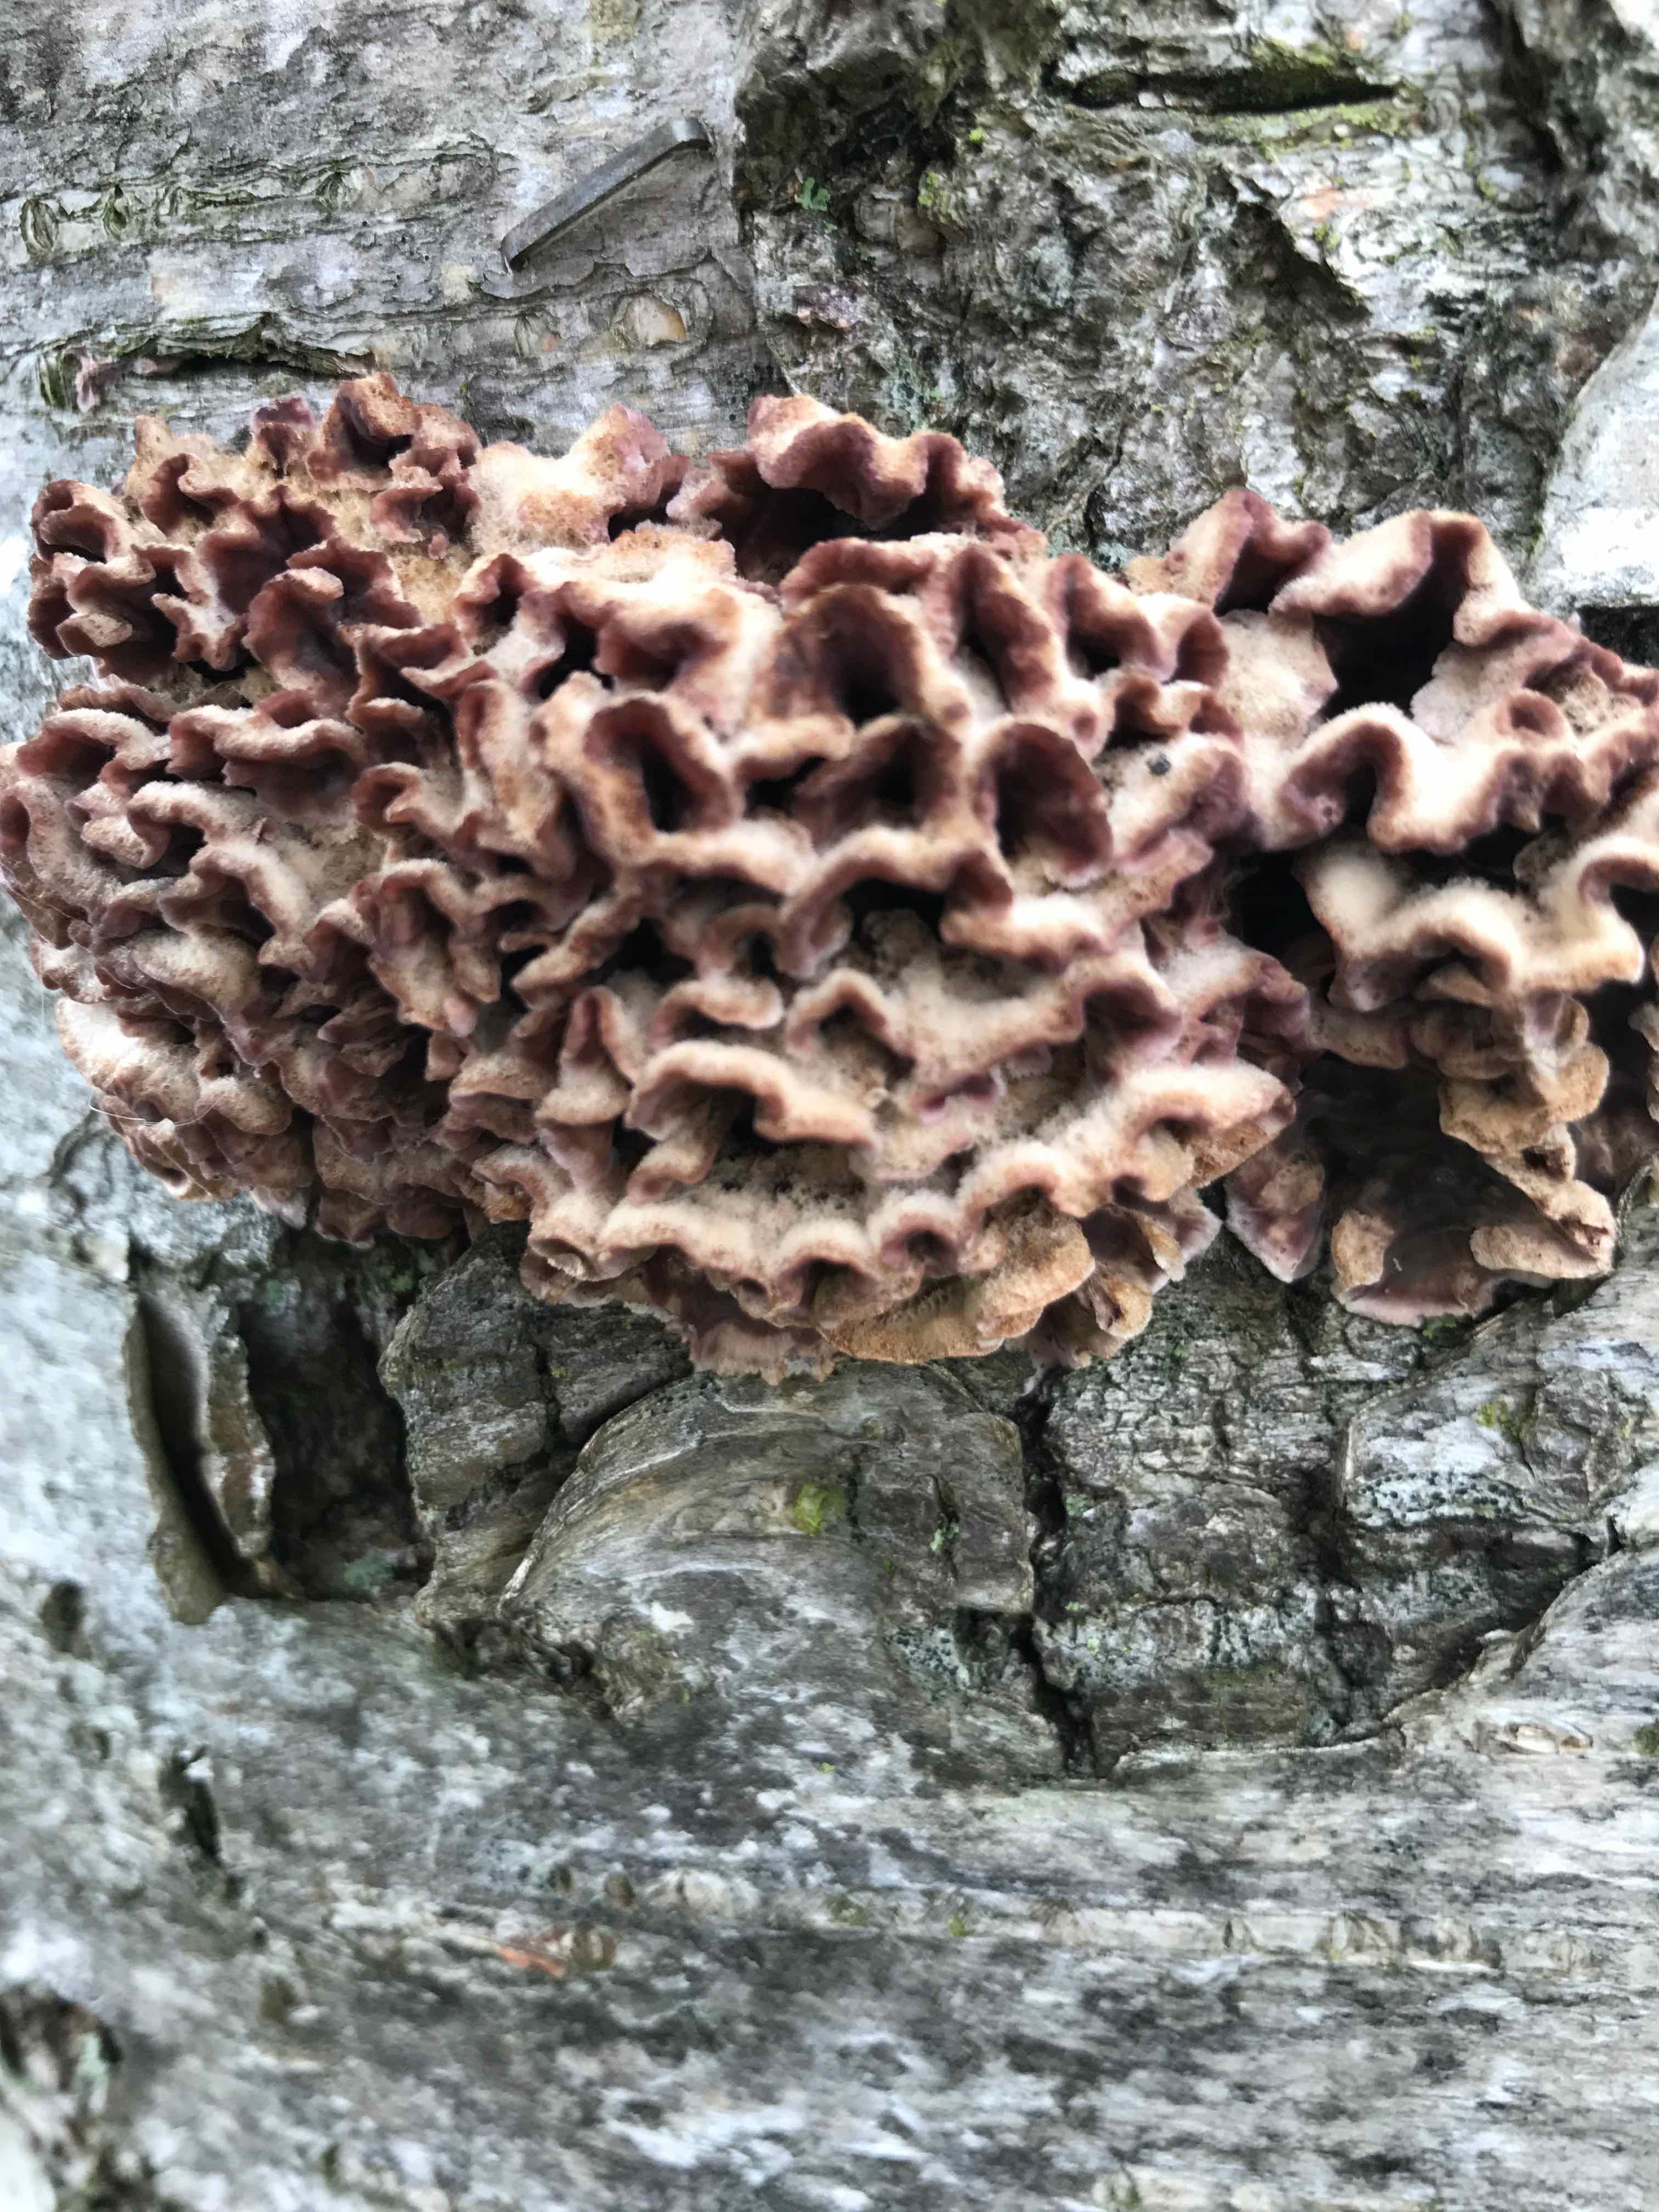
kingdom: Fungi
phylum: Basidiomycota
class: Agaricomycetes
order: Agaricales
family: Cyphellaceae
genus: Chondrostereum
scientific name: Chondrostereum purpureum
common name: purpurlædersvamp
